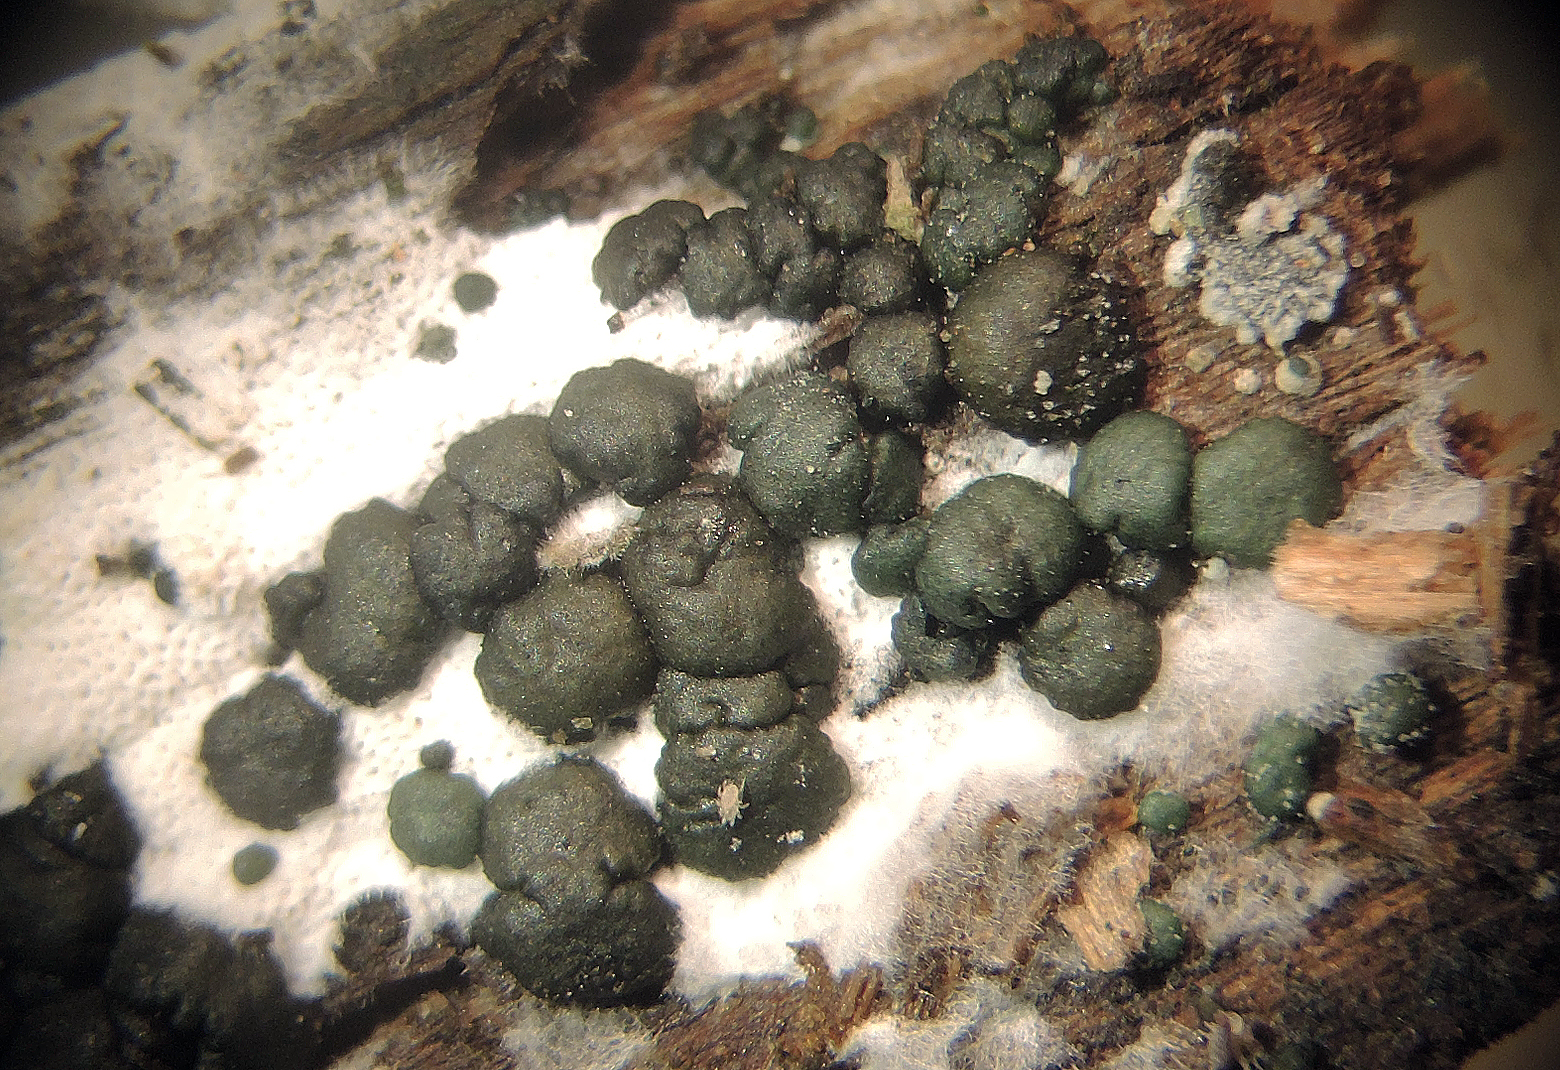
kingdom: Fungi
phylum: Ascomycota
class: Sordariomycetes
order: Hypocreales
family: Hypocreaceae
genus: Trichoderma
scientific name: Trichoderma atrobrunneum
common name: grønsort kødkerne
